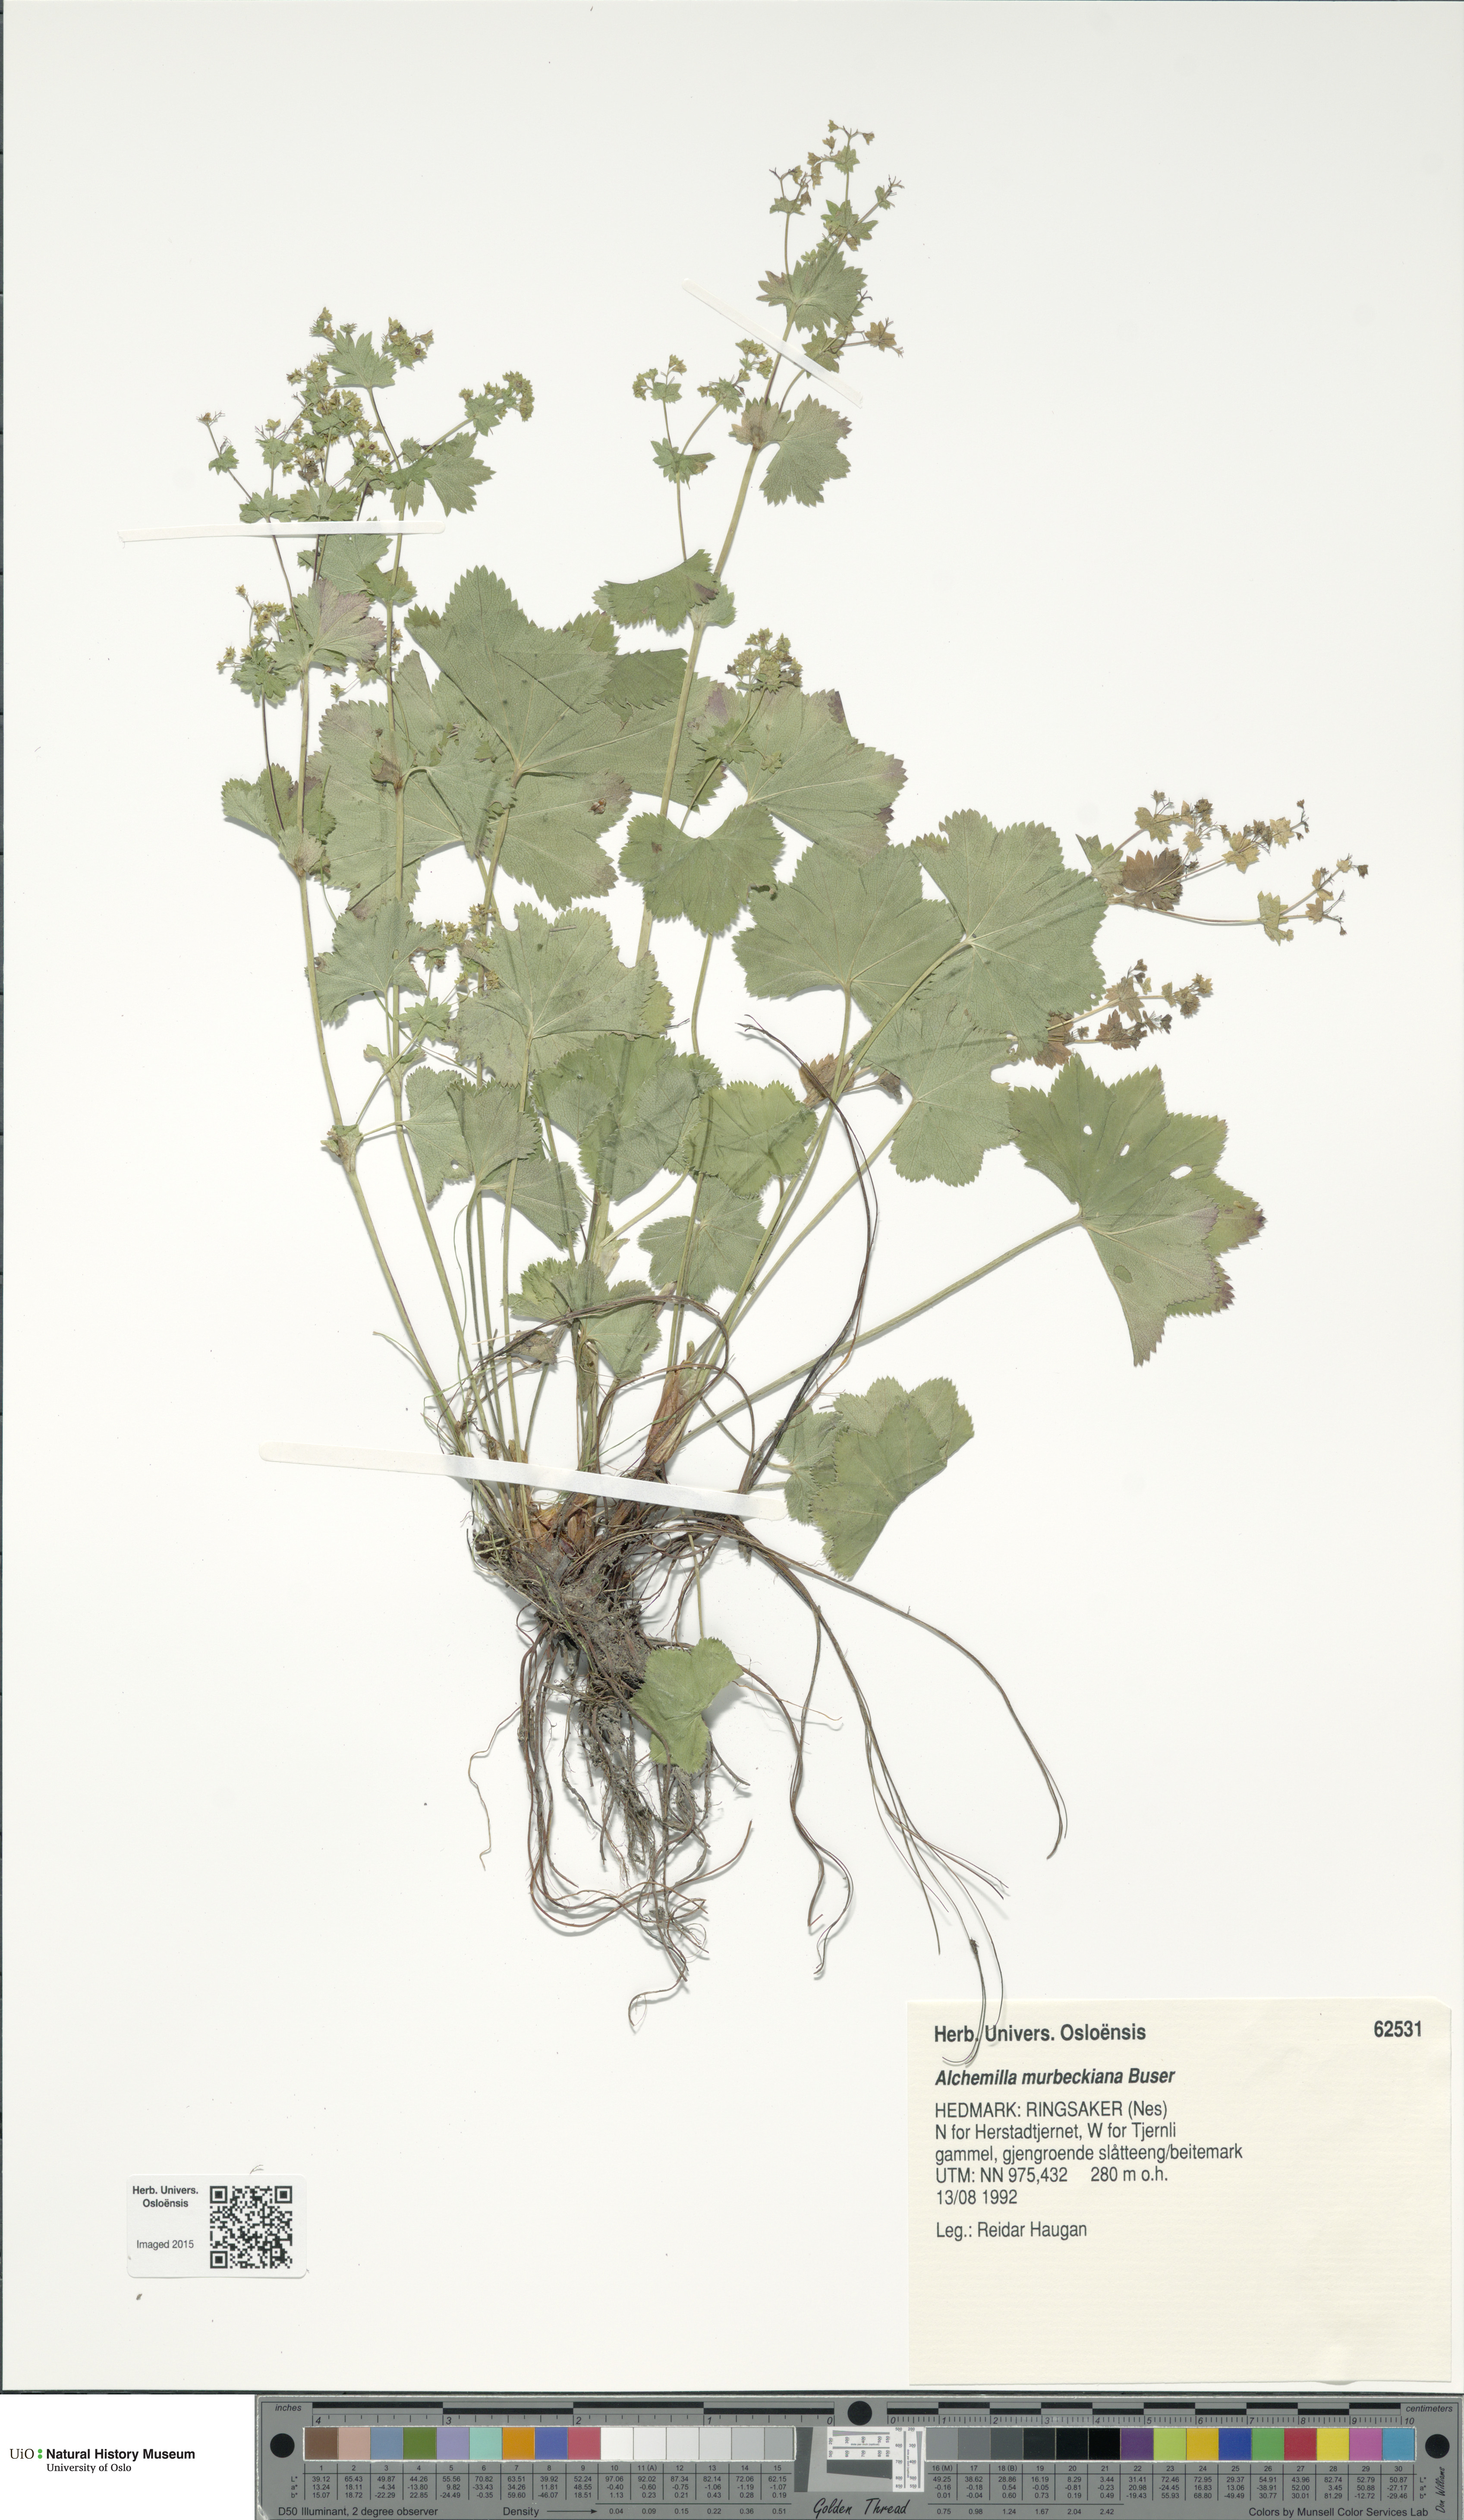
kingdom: Plantae
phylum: Tracheophyta
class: Magnoliopsida
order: Rosales
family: Rosaceae
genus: Alchemilla
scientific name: Alchemilla murbeckiana
